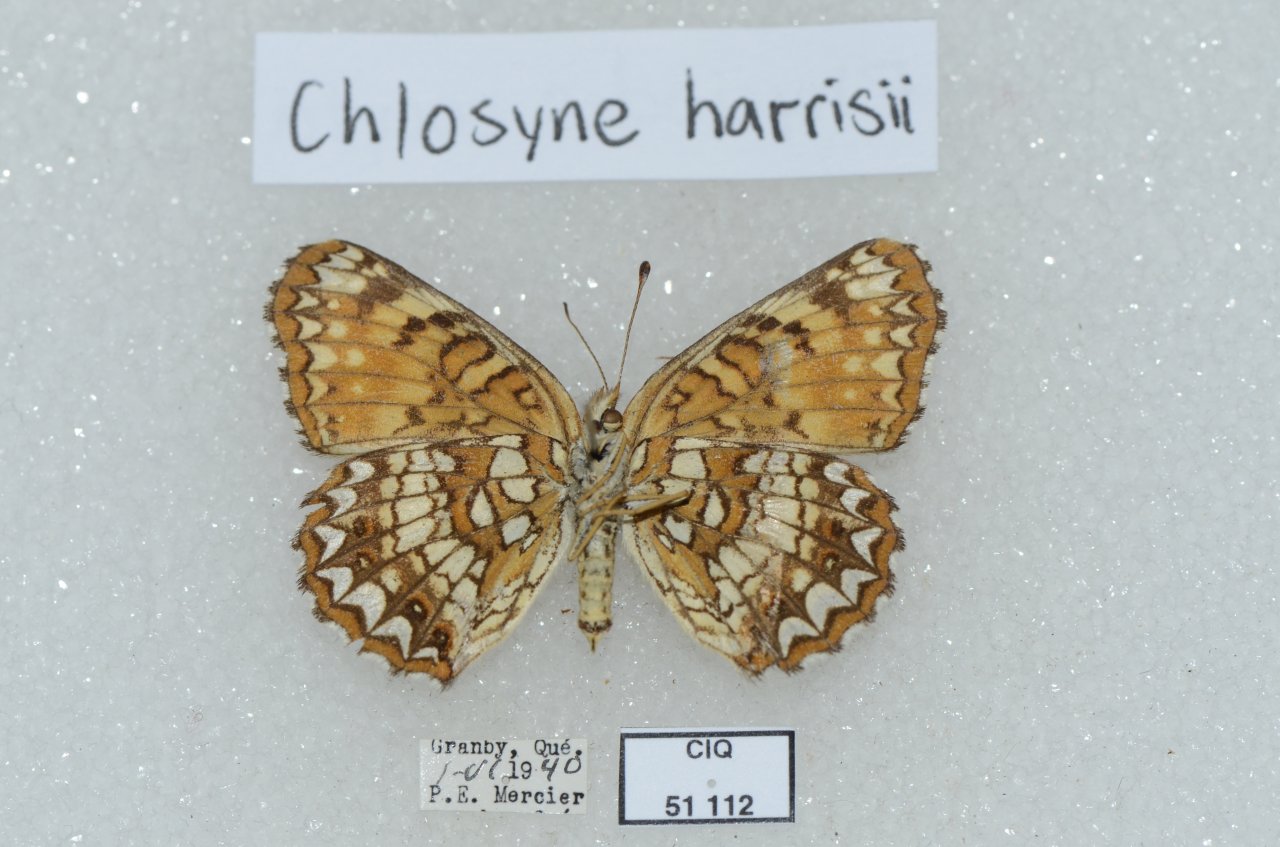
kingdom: Animalia
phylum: Arthropoda
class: Insecta
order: Lepidoptera
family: Nymphalidae
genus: Chlosyne
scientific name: Chlosyne nycteis
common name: Silvery Checkerspot
